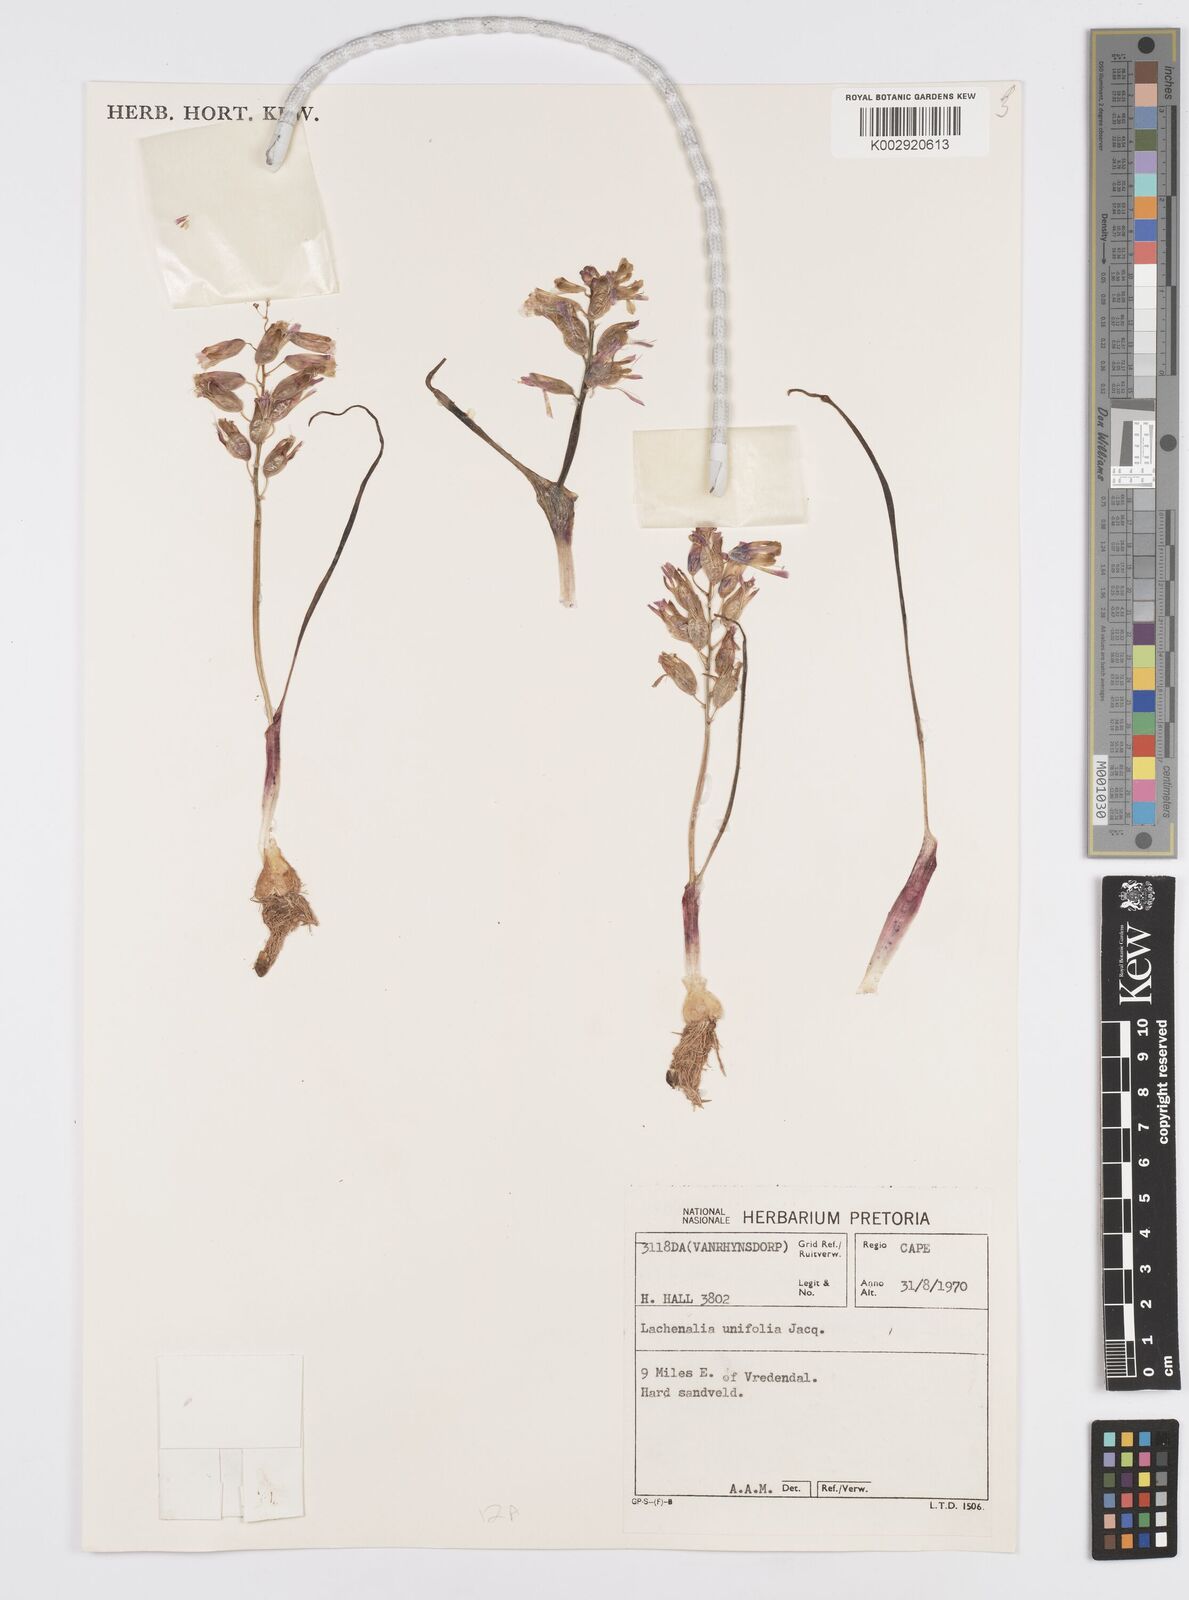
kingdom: Plantae
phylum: Tracheophyta
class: Liliopsida
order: Asparagales
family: Asparagaceae
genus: Lachenalia
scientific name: Lachenalia unifolia
